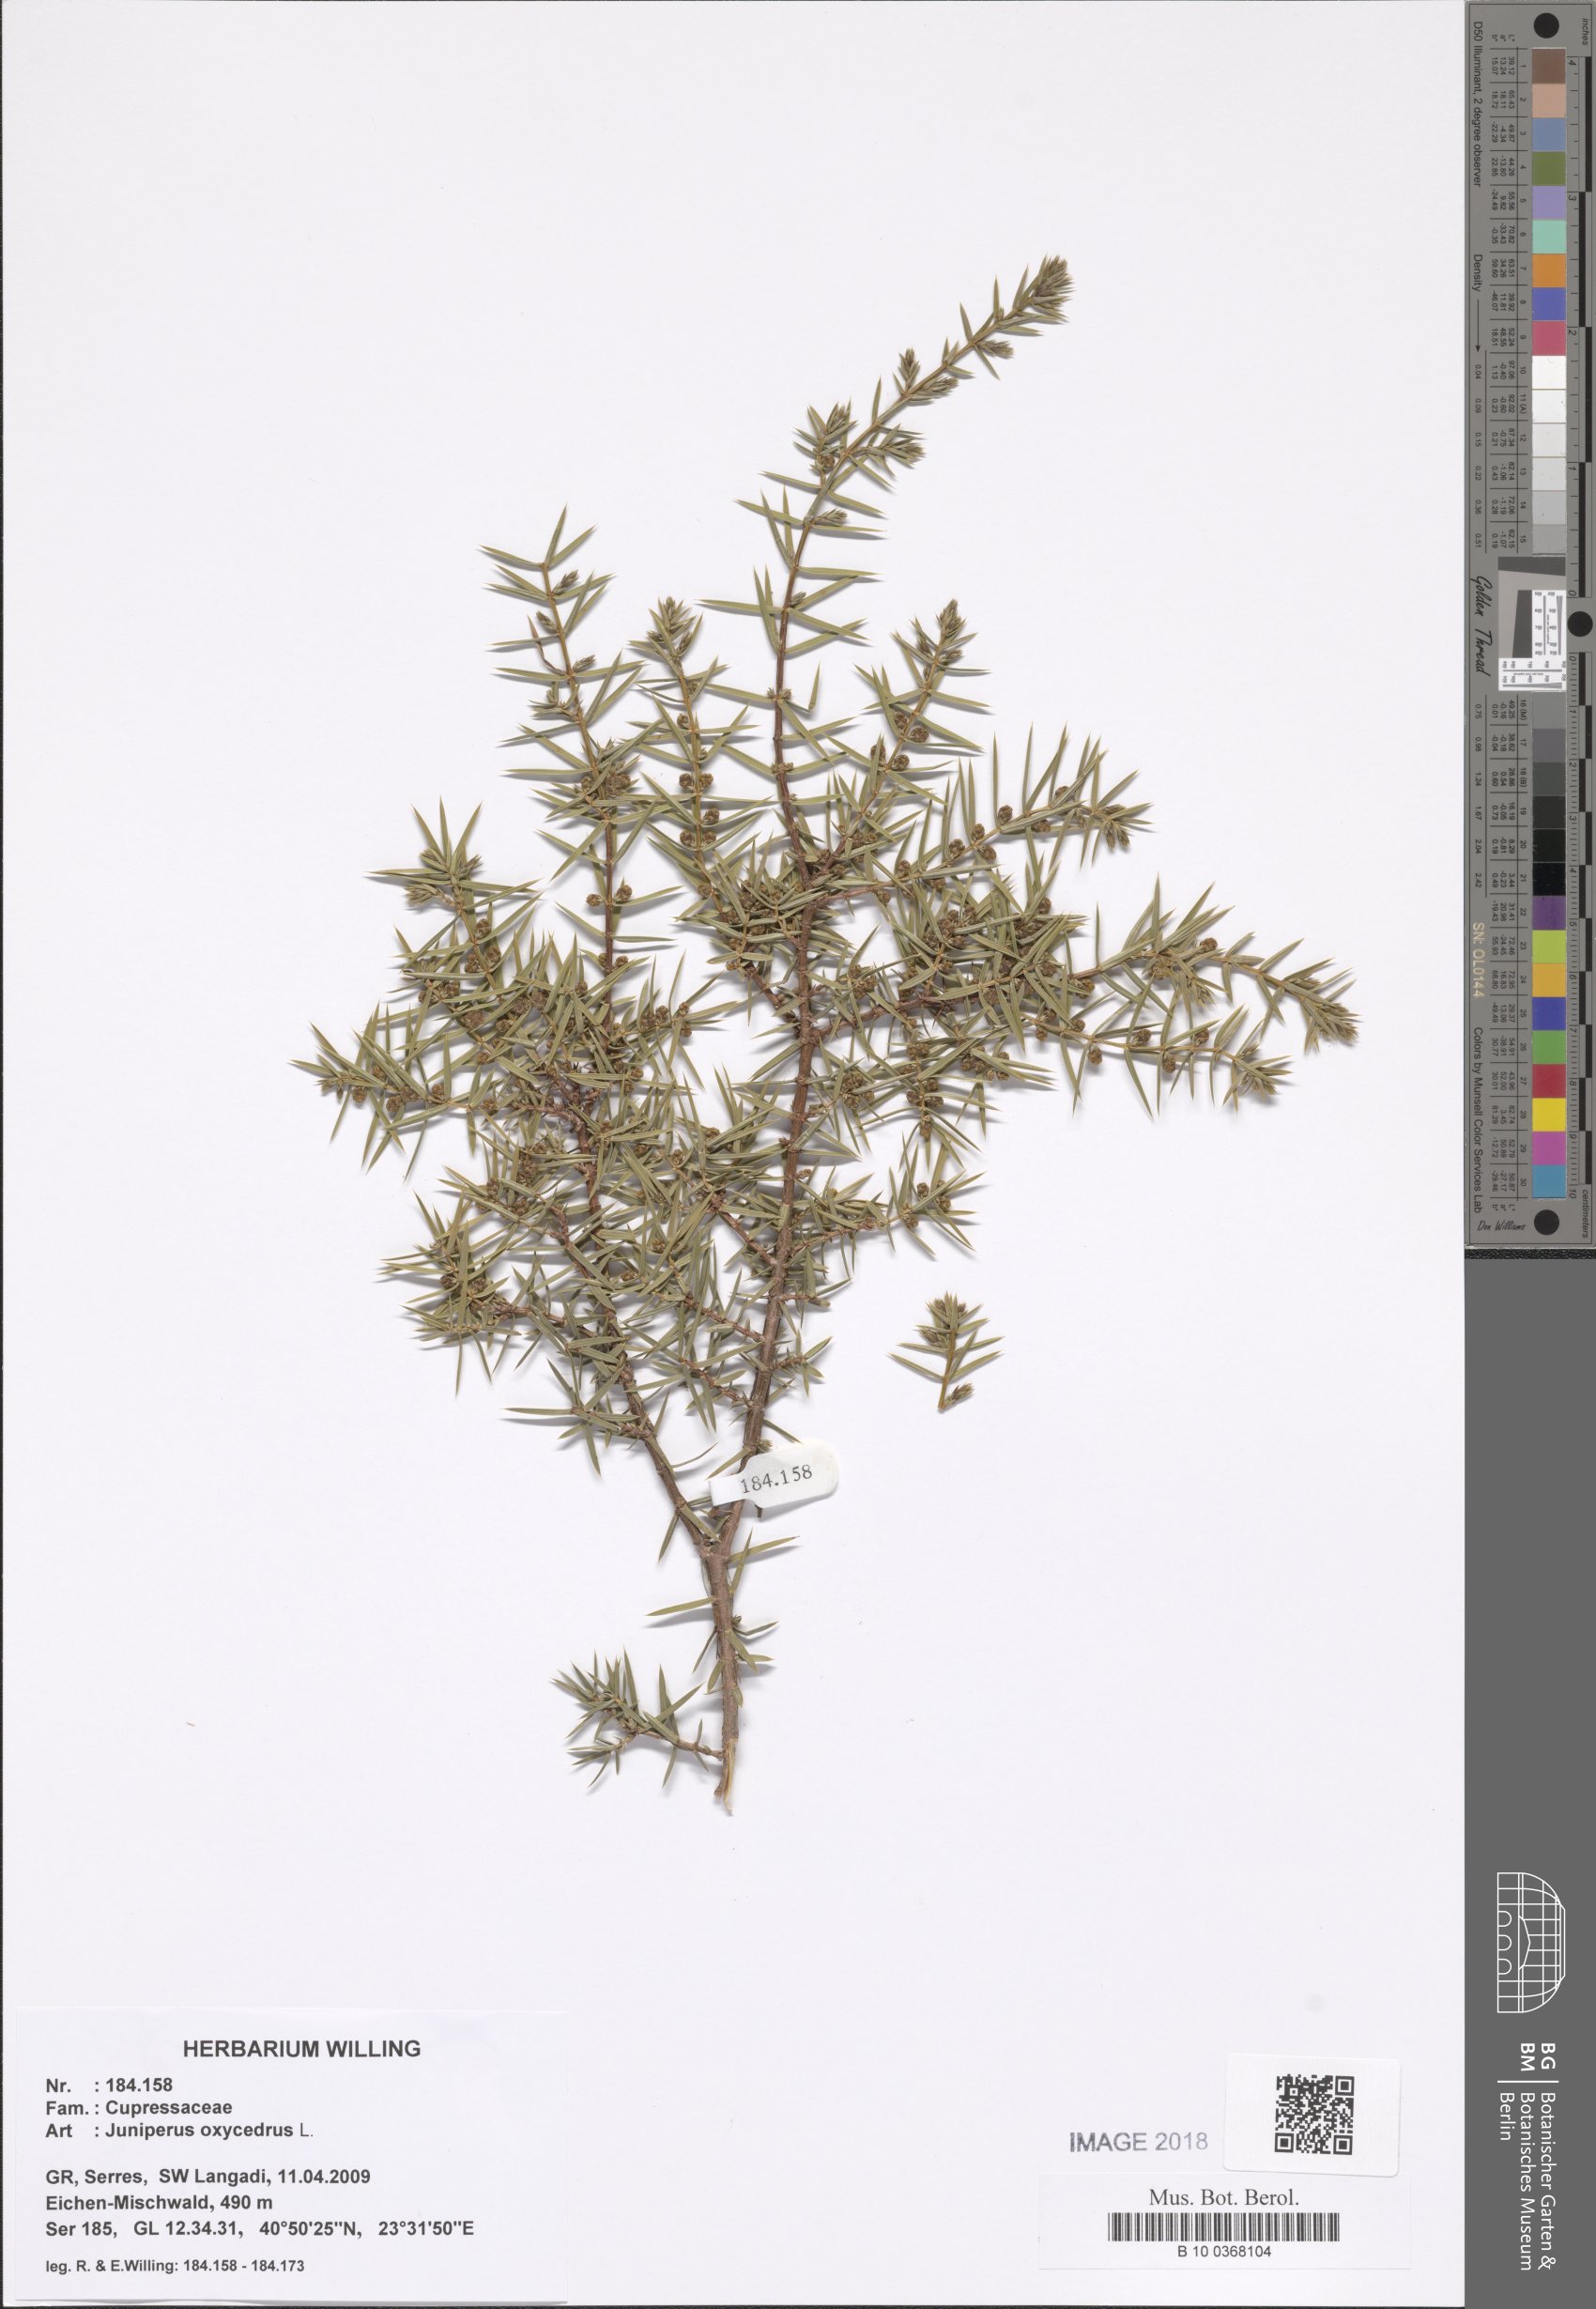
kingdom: Plantae
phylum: Tracheophyta
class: Pinopsida
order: Pinales
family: Cupressaceae
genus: Juniperus
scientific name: Juniperus
